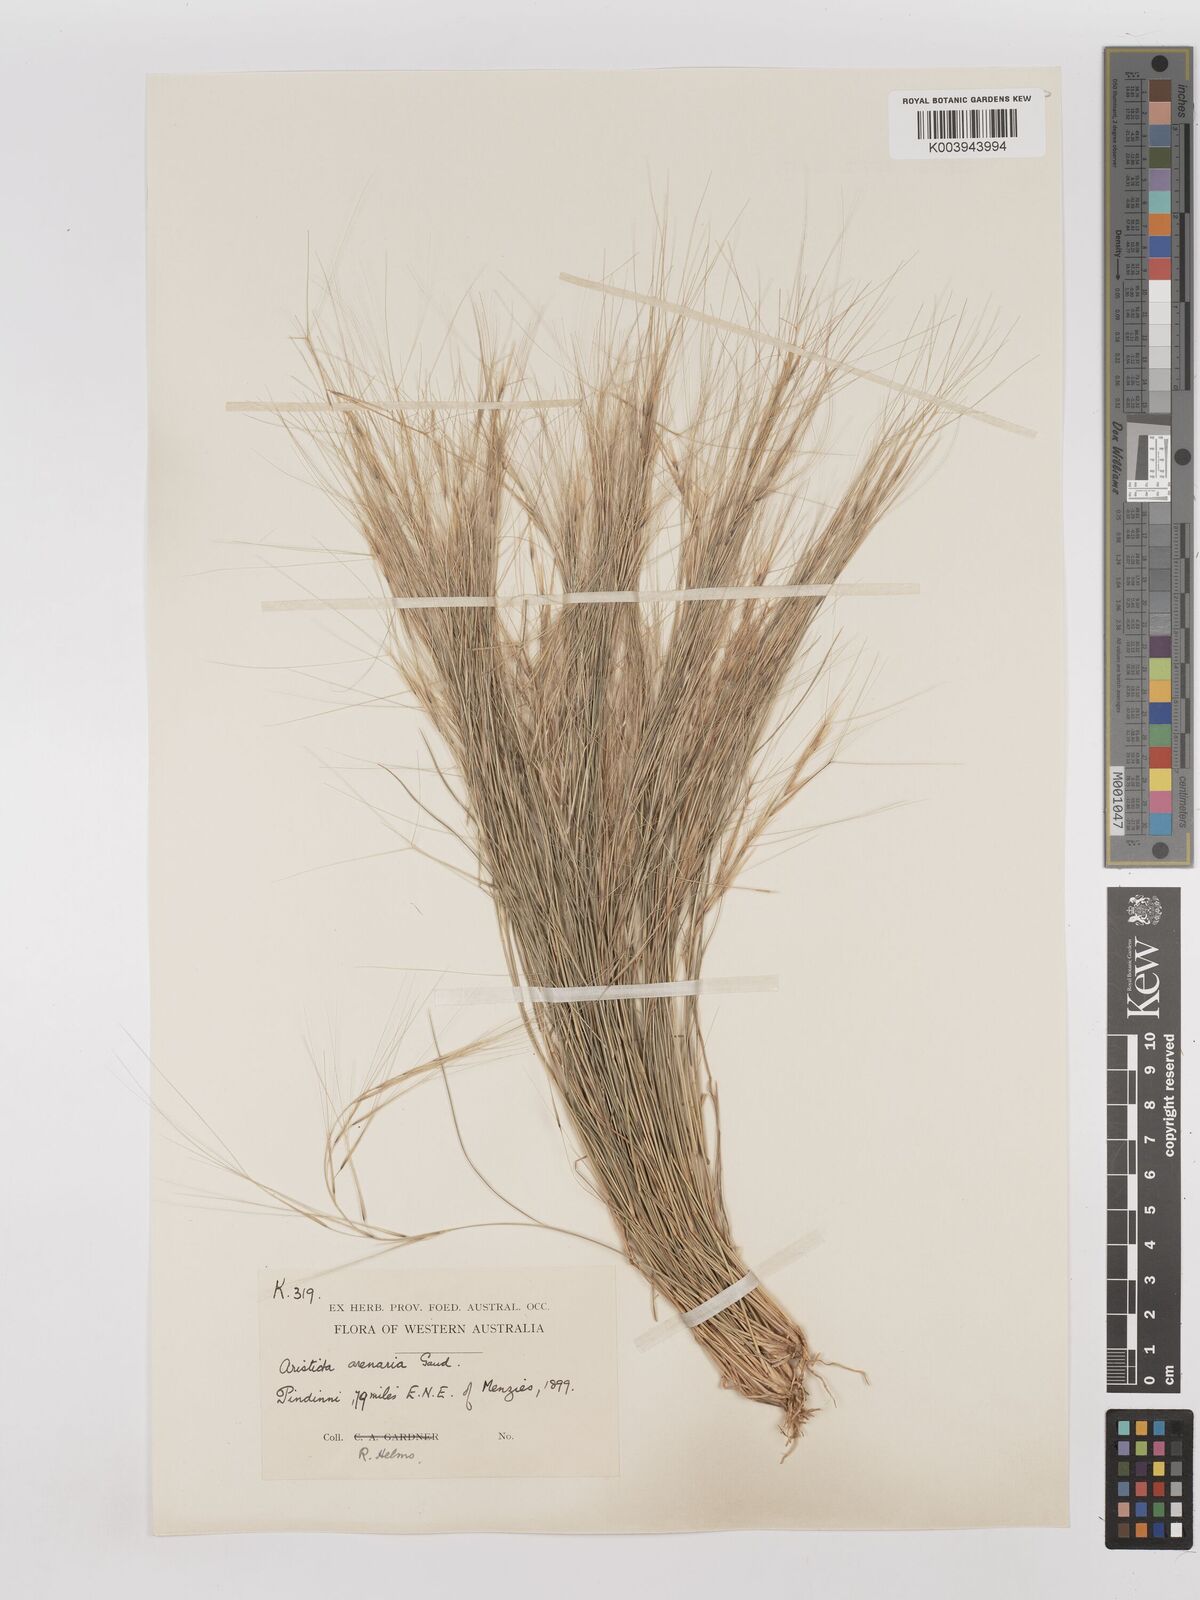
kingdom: Plantae
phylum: Tracheophyta
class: Liliopsida
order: Poales
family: Poaceae
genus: Aristida
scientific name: Aristida contorta
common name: Bunch kerosene grass
